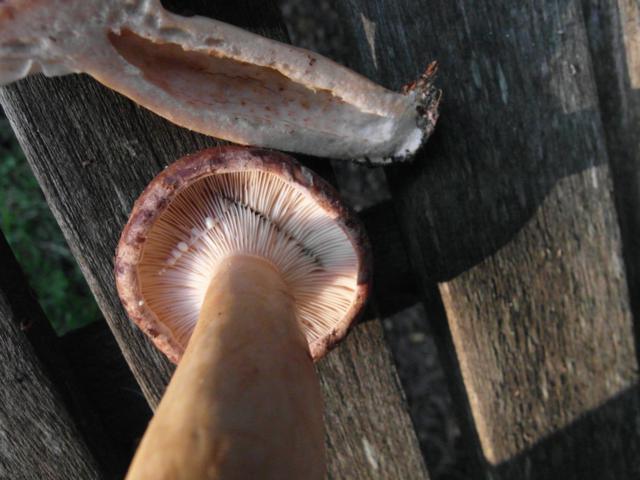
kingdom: Fungi
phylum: Basidiomycota
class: Agaricomycetes
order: Russulales
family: Russulaceae
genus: Lactarius
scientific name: Lactarius trivialis
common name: nordisk mælkehat
